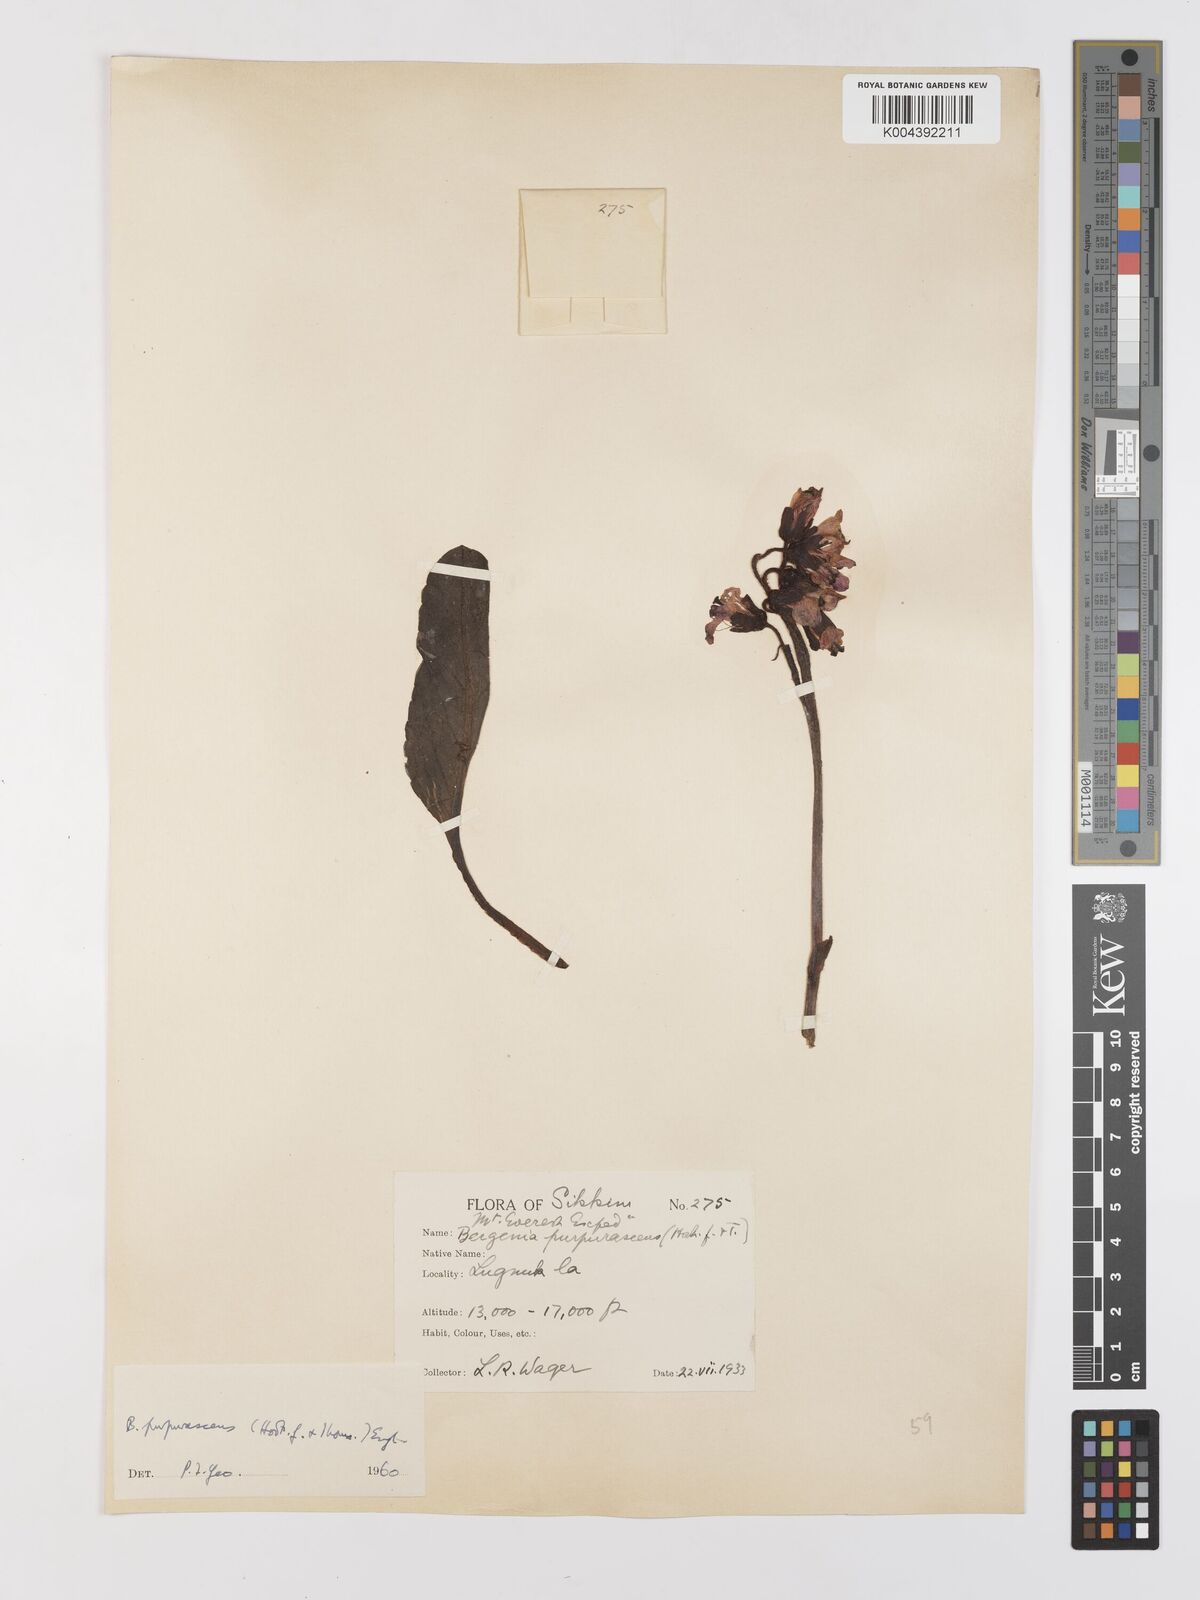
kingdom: Plantae
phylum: Tracheophyta
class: Magnoliopsida
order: Saxifragales
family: Saxifragaceae
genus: Bergenia
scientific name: Bergenia purpurascens
